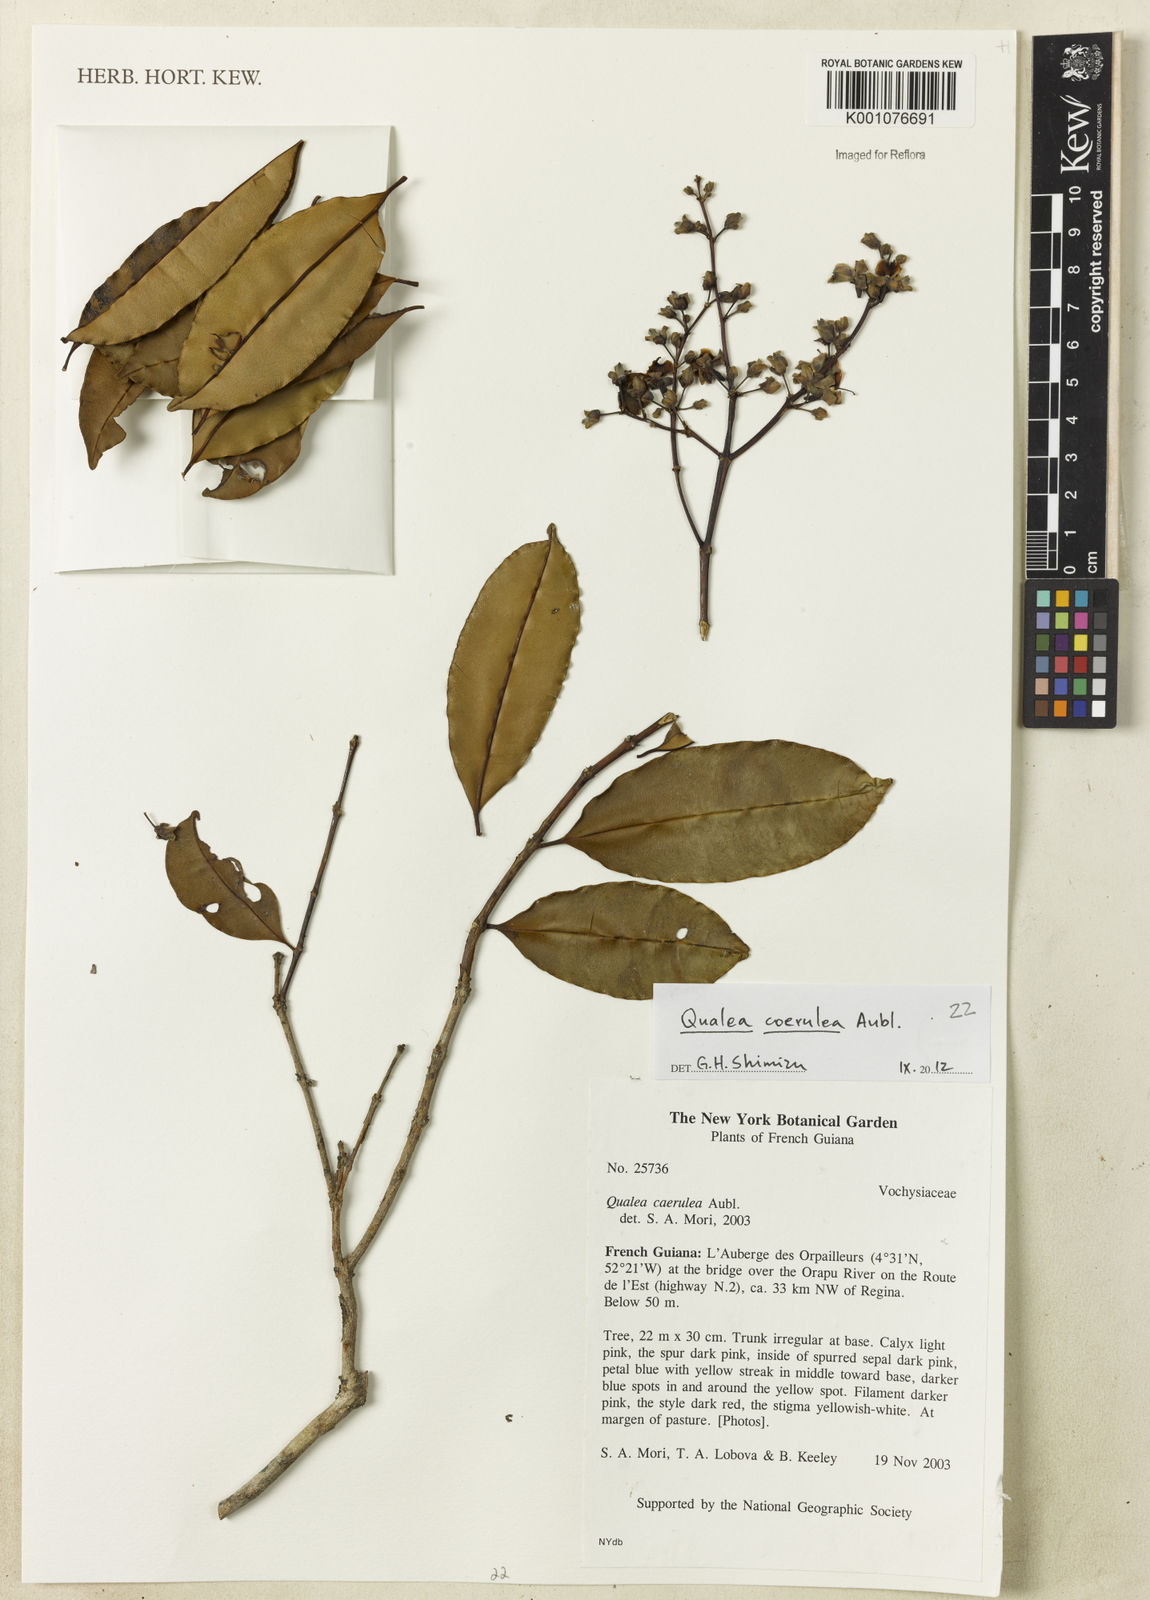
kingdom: Plantae
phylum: Tracheophyta
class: Magnoliopsida
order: Myrtales
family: Vochysiaceae
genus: Qualea
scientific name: Qualea
